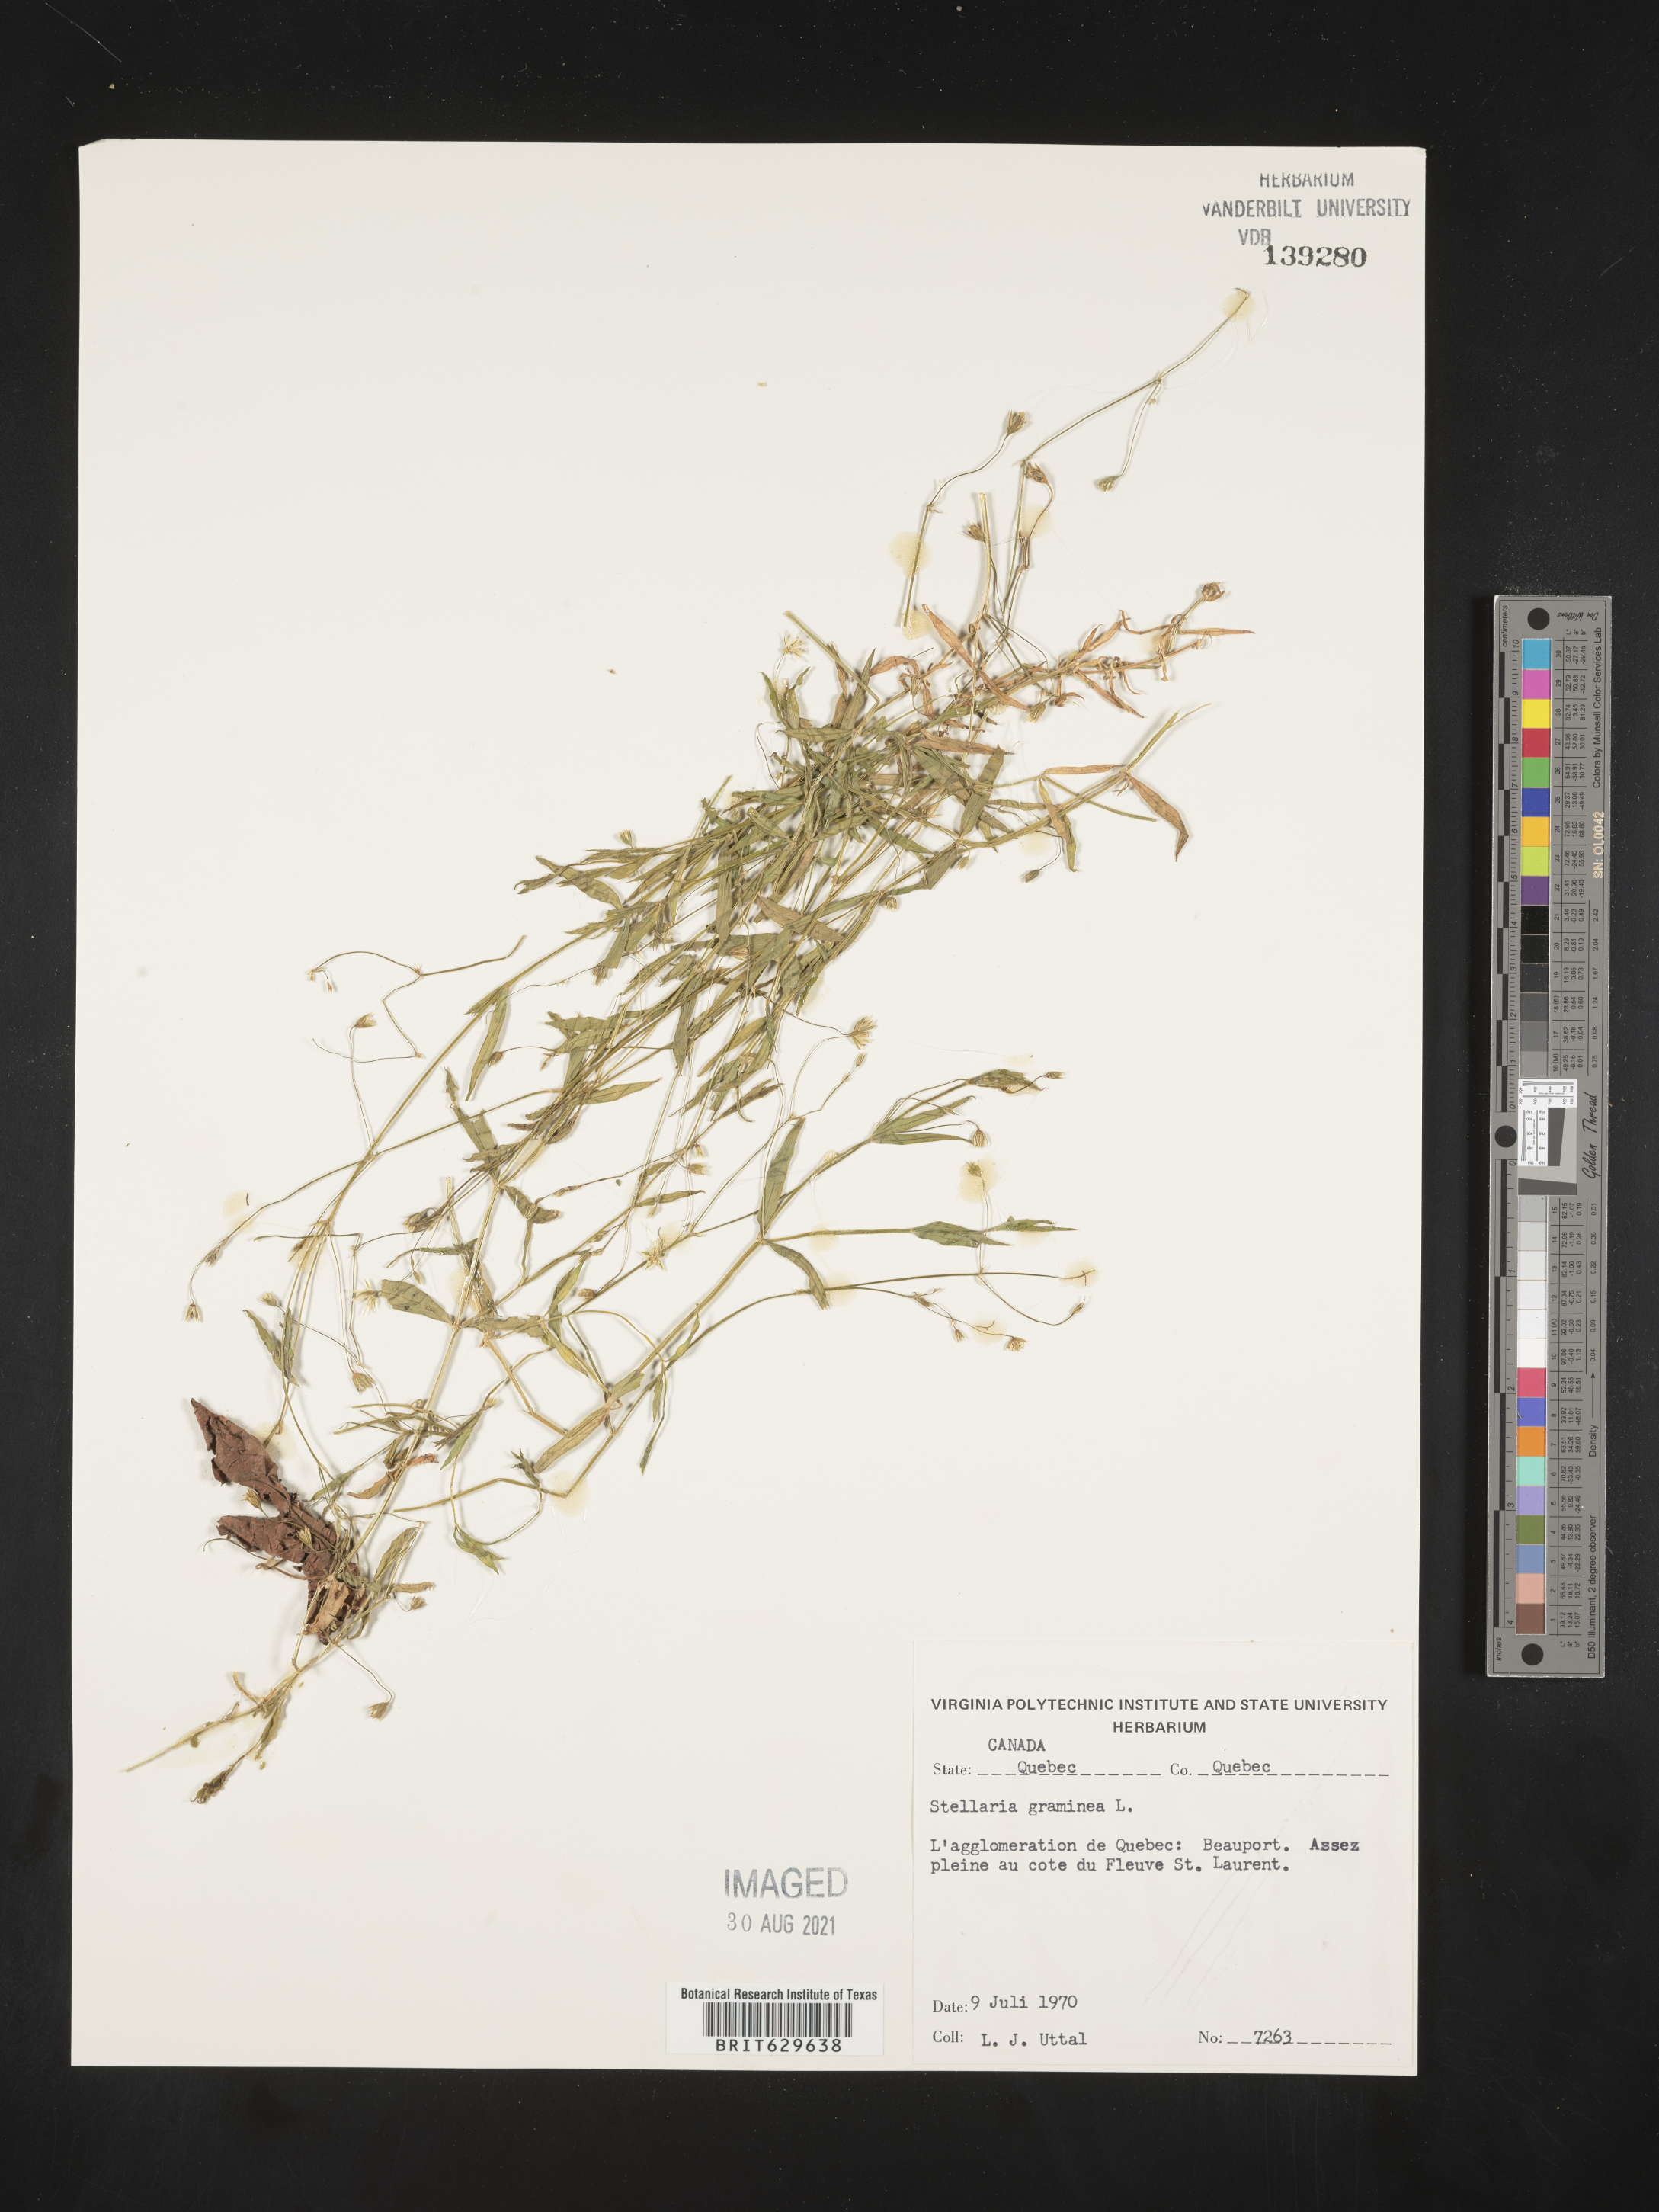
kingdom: Plantae
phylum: Tracheophyta
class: Magnoliopsida
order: Caryophyllales
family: Caryophyllaceae
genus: Stellaria
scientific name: Stellaria graminea
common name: Grass-like starwort
